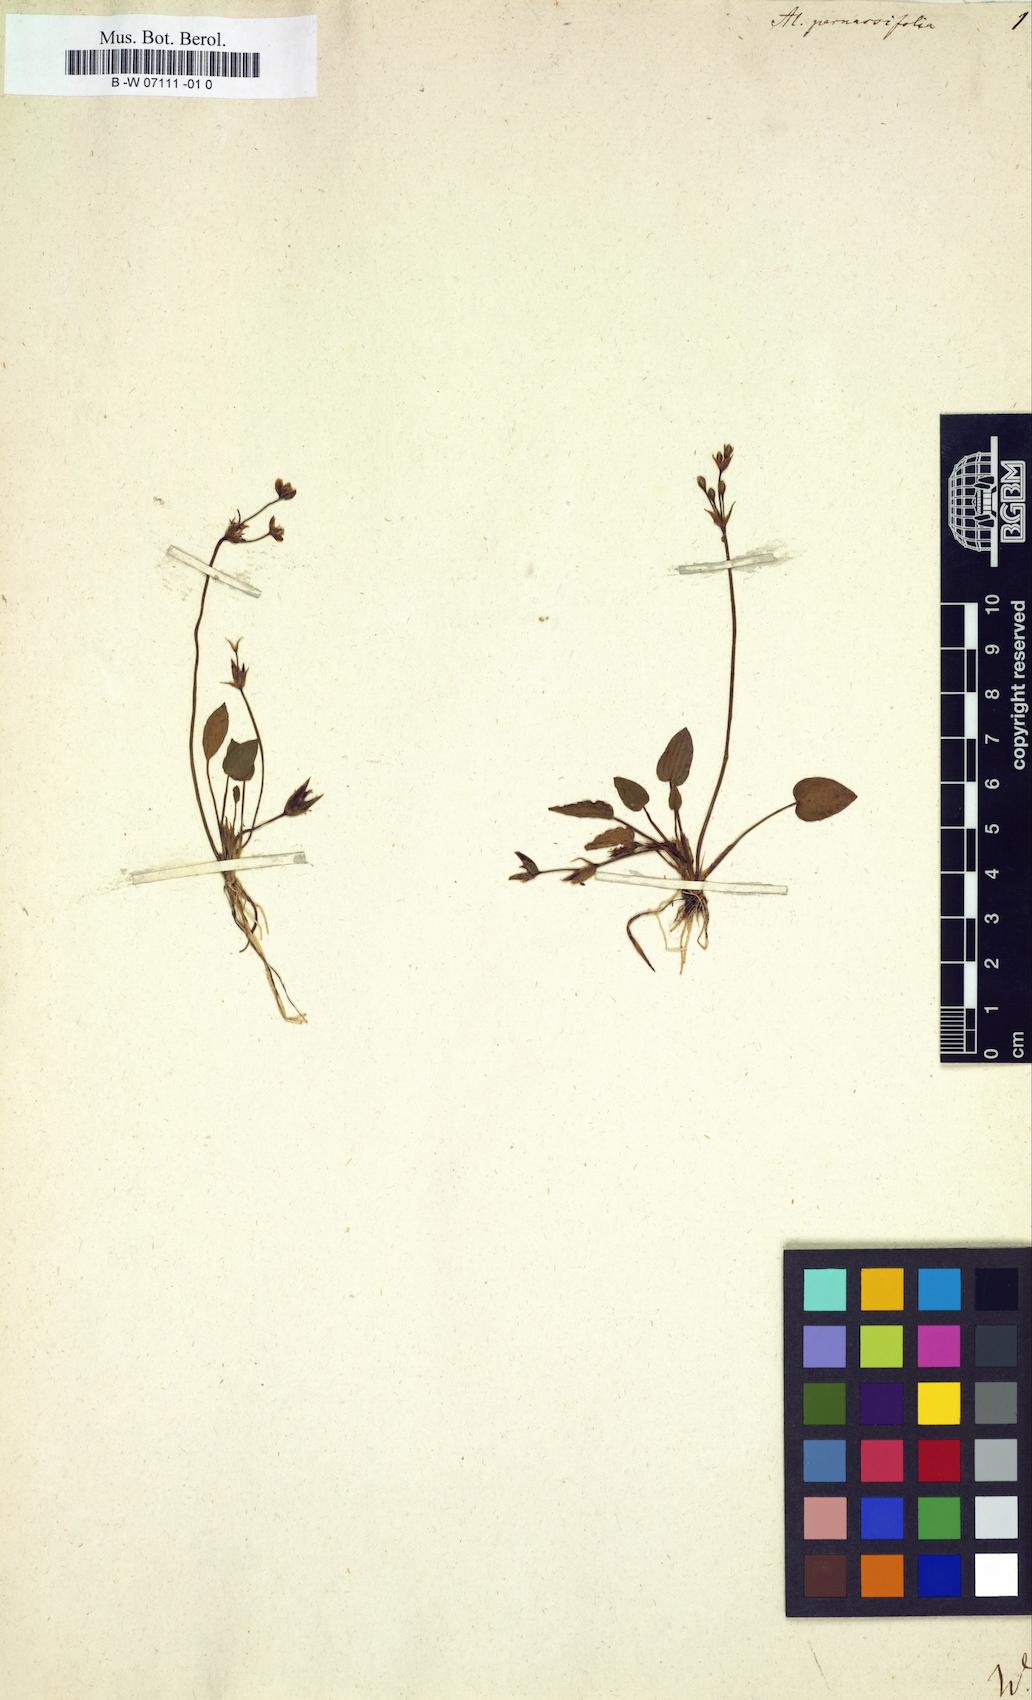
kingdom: Plantae
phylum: Tracheophyta
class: Liliopsida
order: Alismatales
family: Alismataceae
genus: Alisma
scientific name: Alisma parnassifolium
